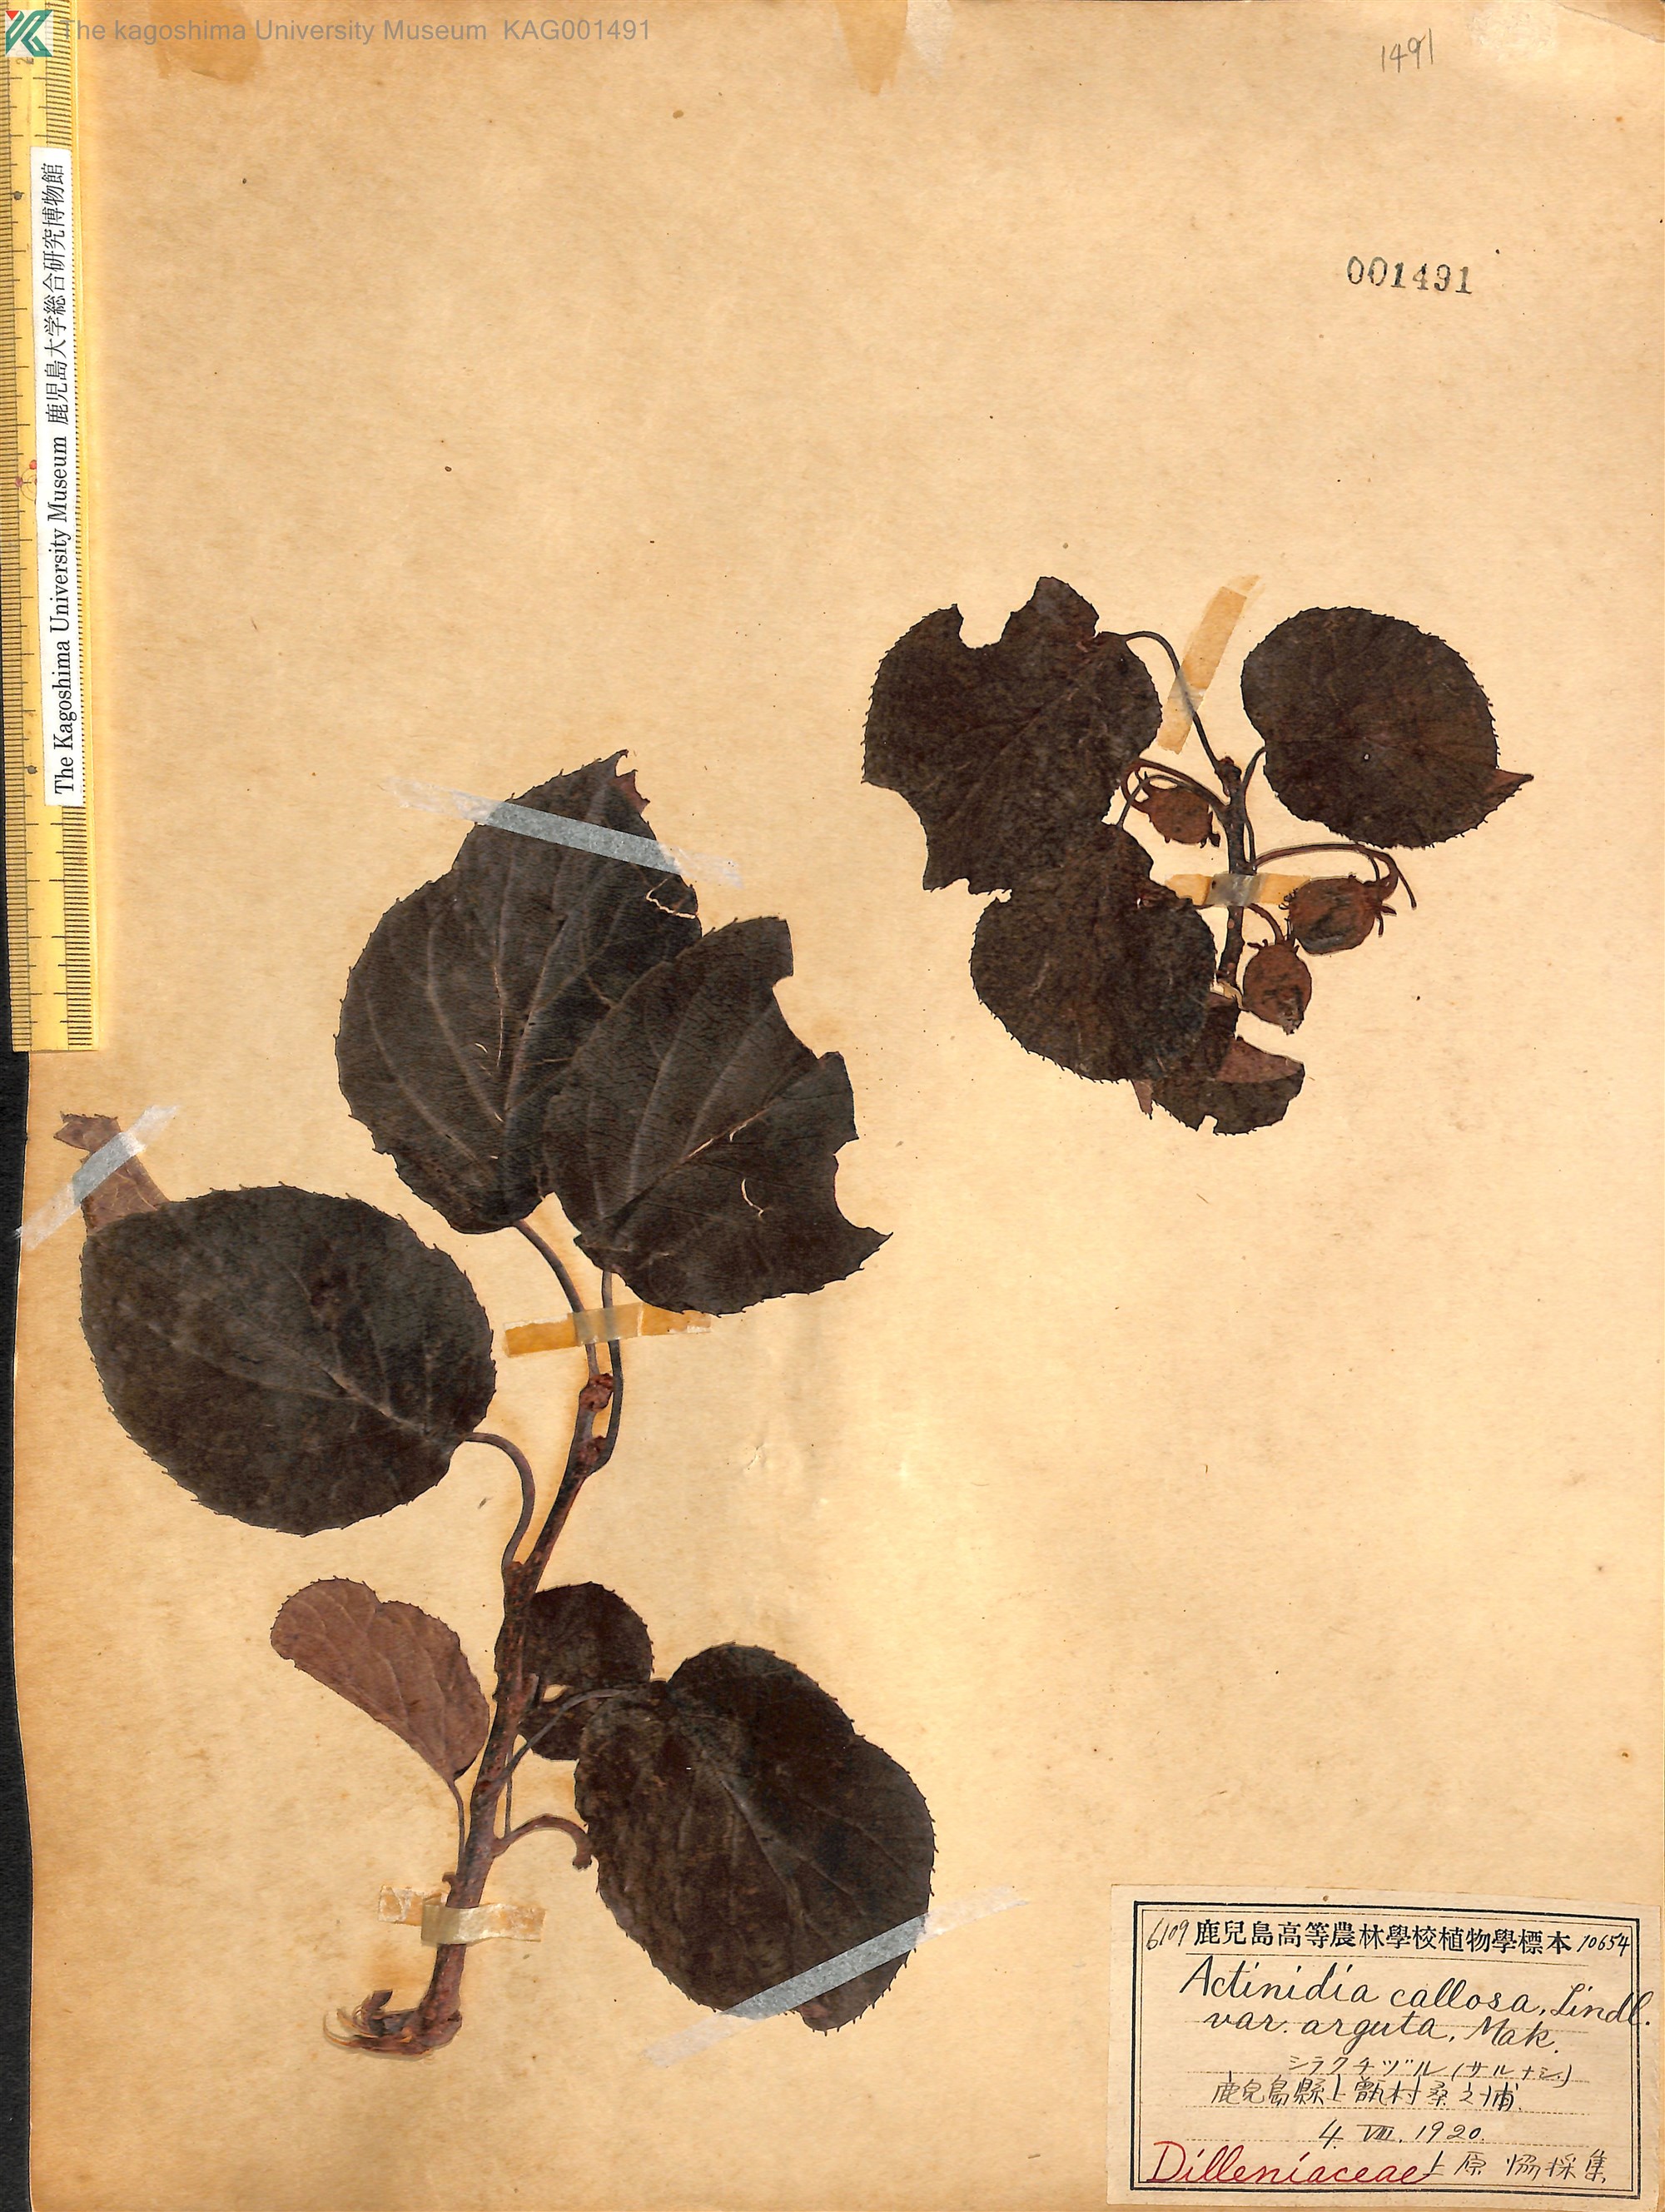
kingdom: Plantae
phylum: Tracheophyta
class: Magnoliopsida
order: Ericales
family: Actinidiaceae
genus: Actinidia
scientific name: Actinidia arguta
